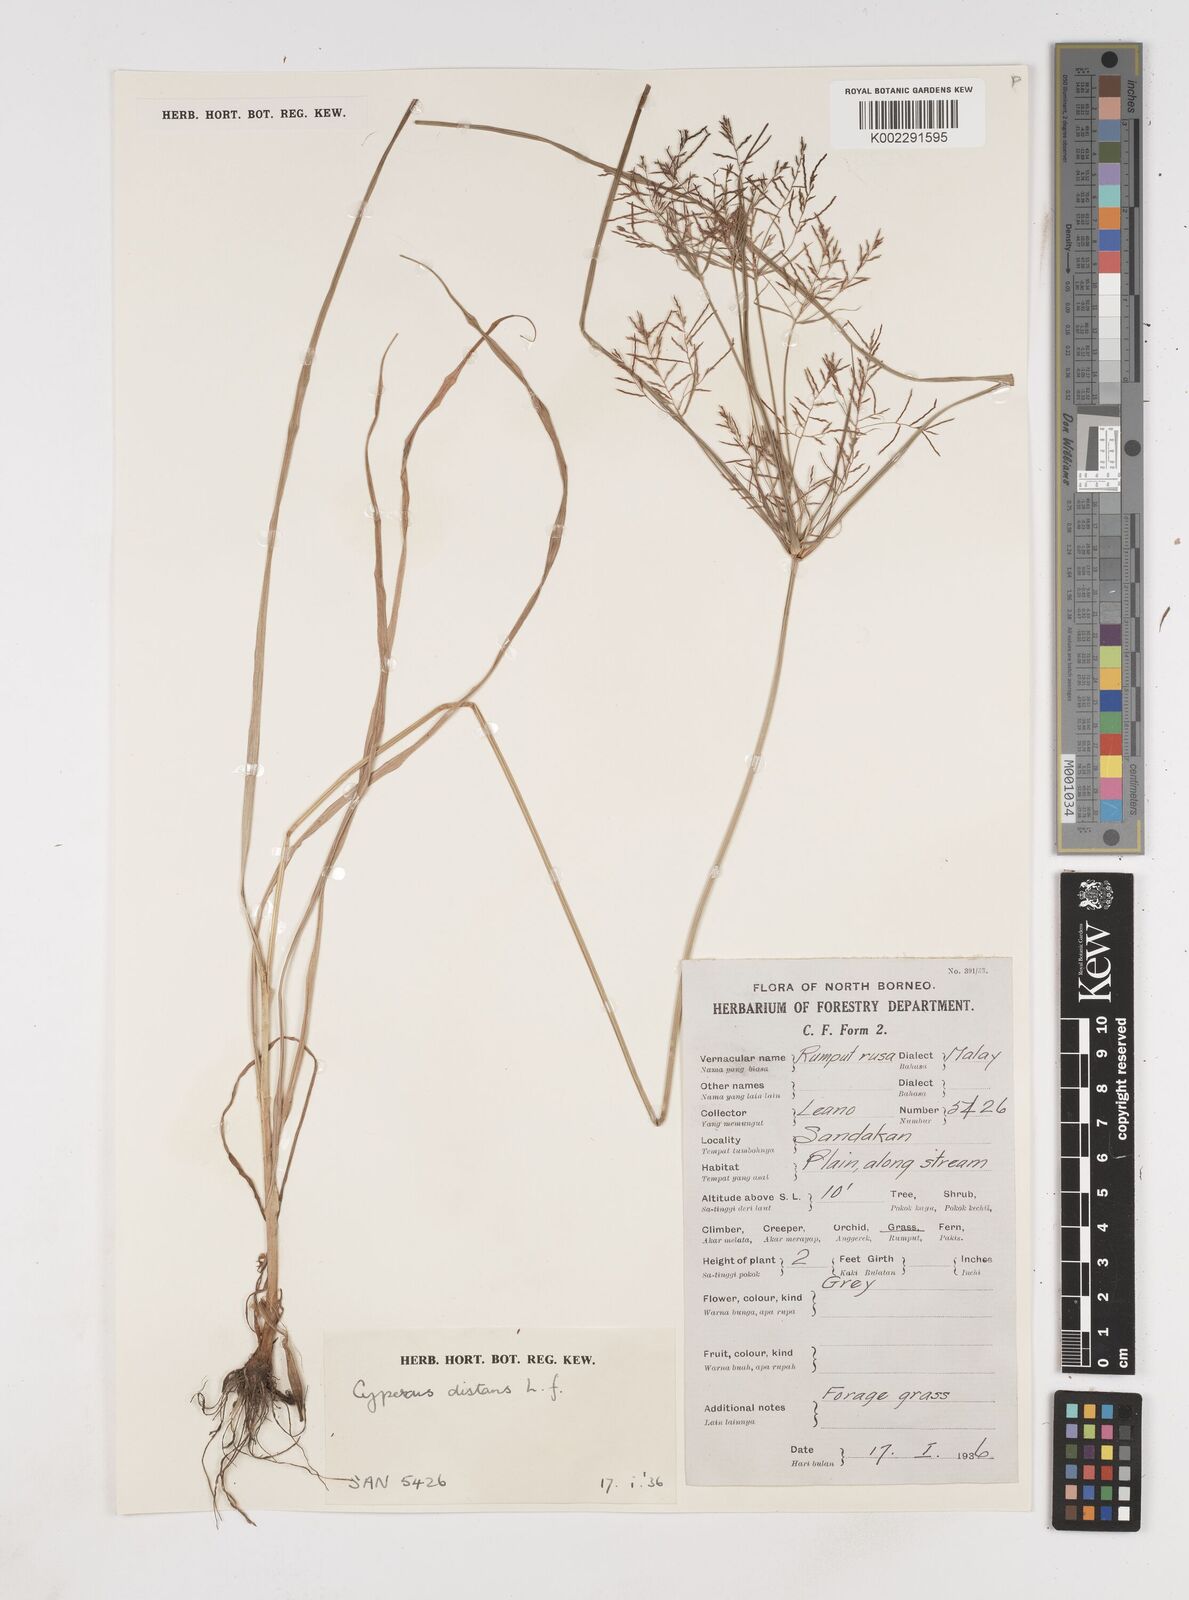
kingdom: Plantae
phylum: Tracheophyta
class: Liliopsida
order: Poales
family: Cyperaceae
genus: Cyperus
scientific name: Cyperus distans
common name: Slender cyperus
